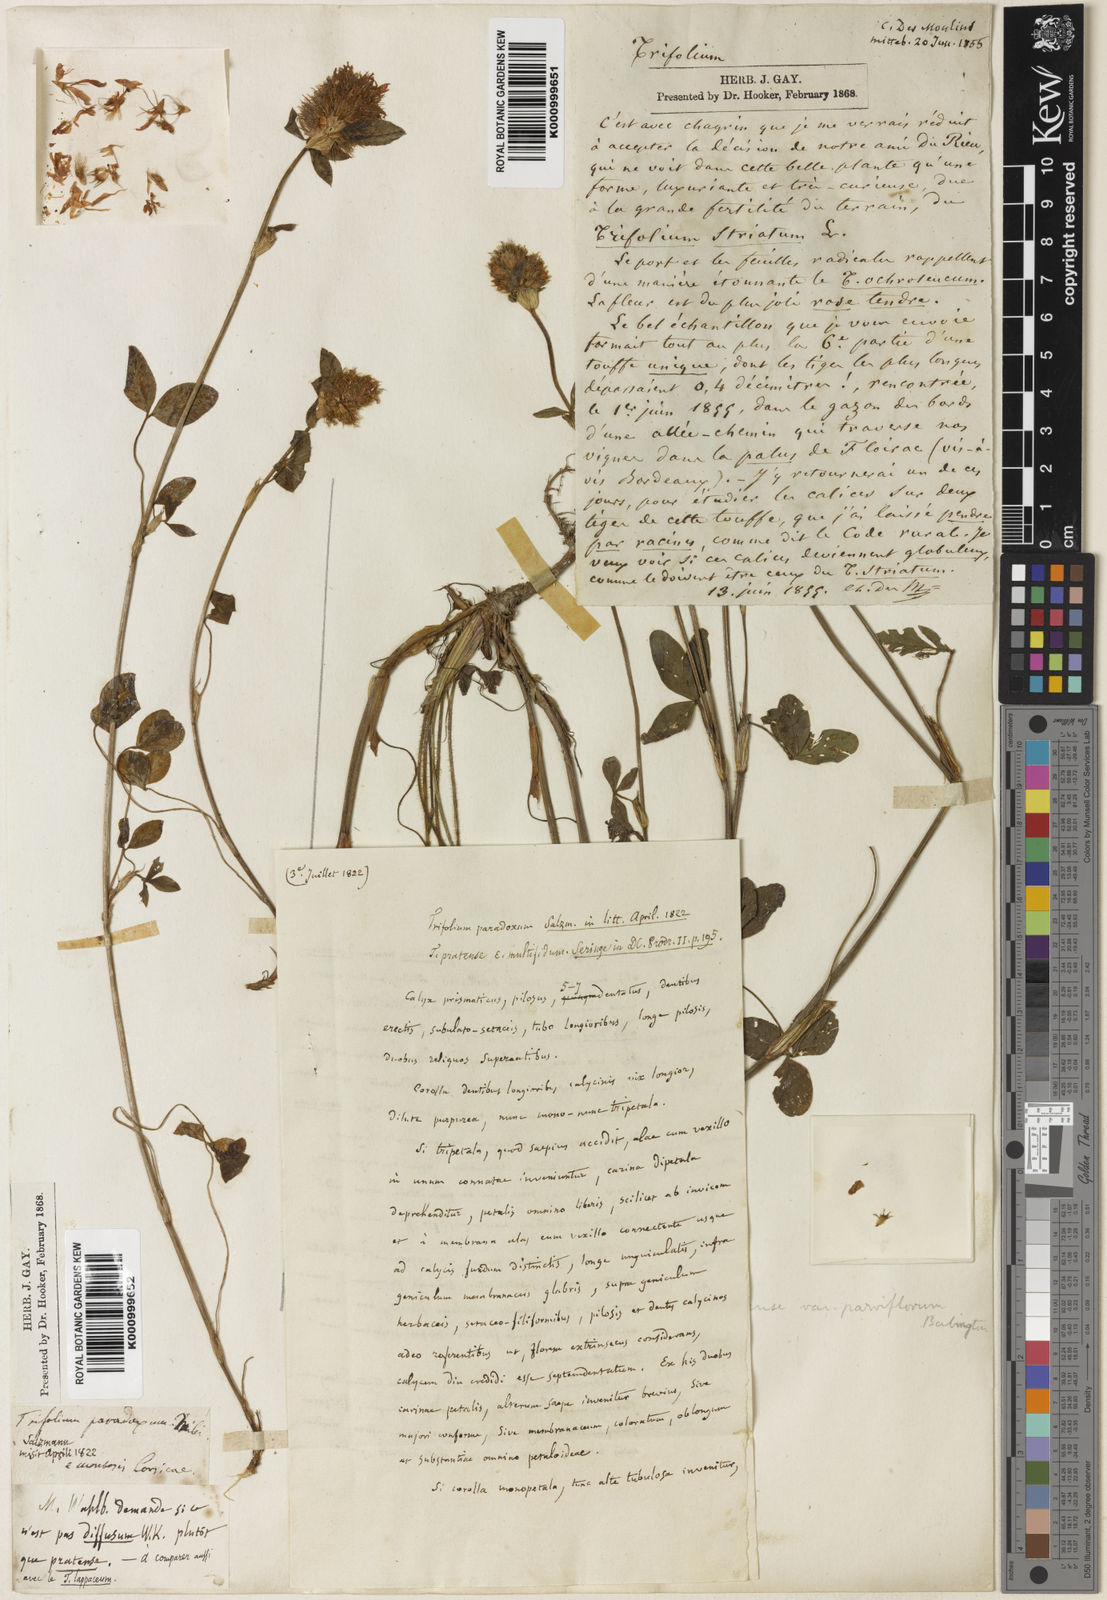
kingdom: Plantae
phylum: Tracheophyta
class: Magnoliopsida
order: Fabales
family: Fabaceae
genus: Trifolium
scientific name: Trifolium pratense
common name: Red clover
